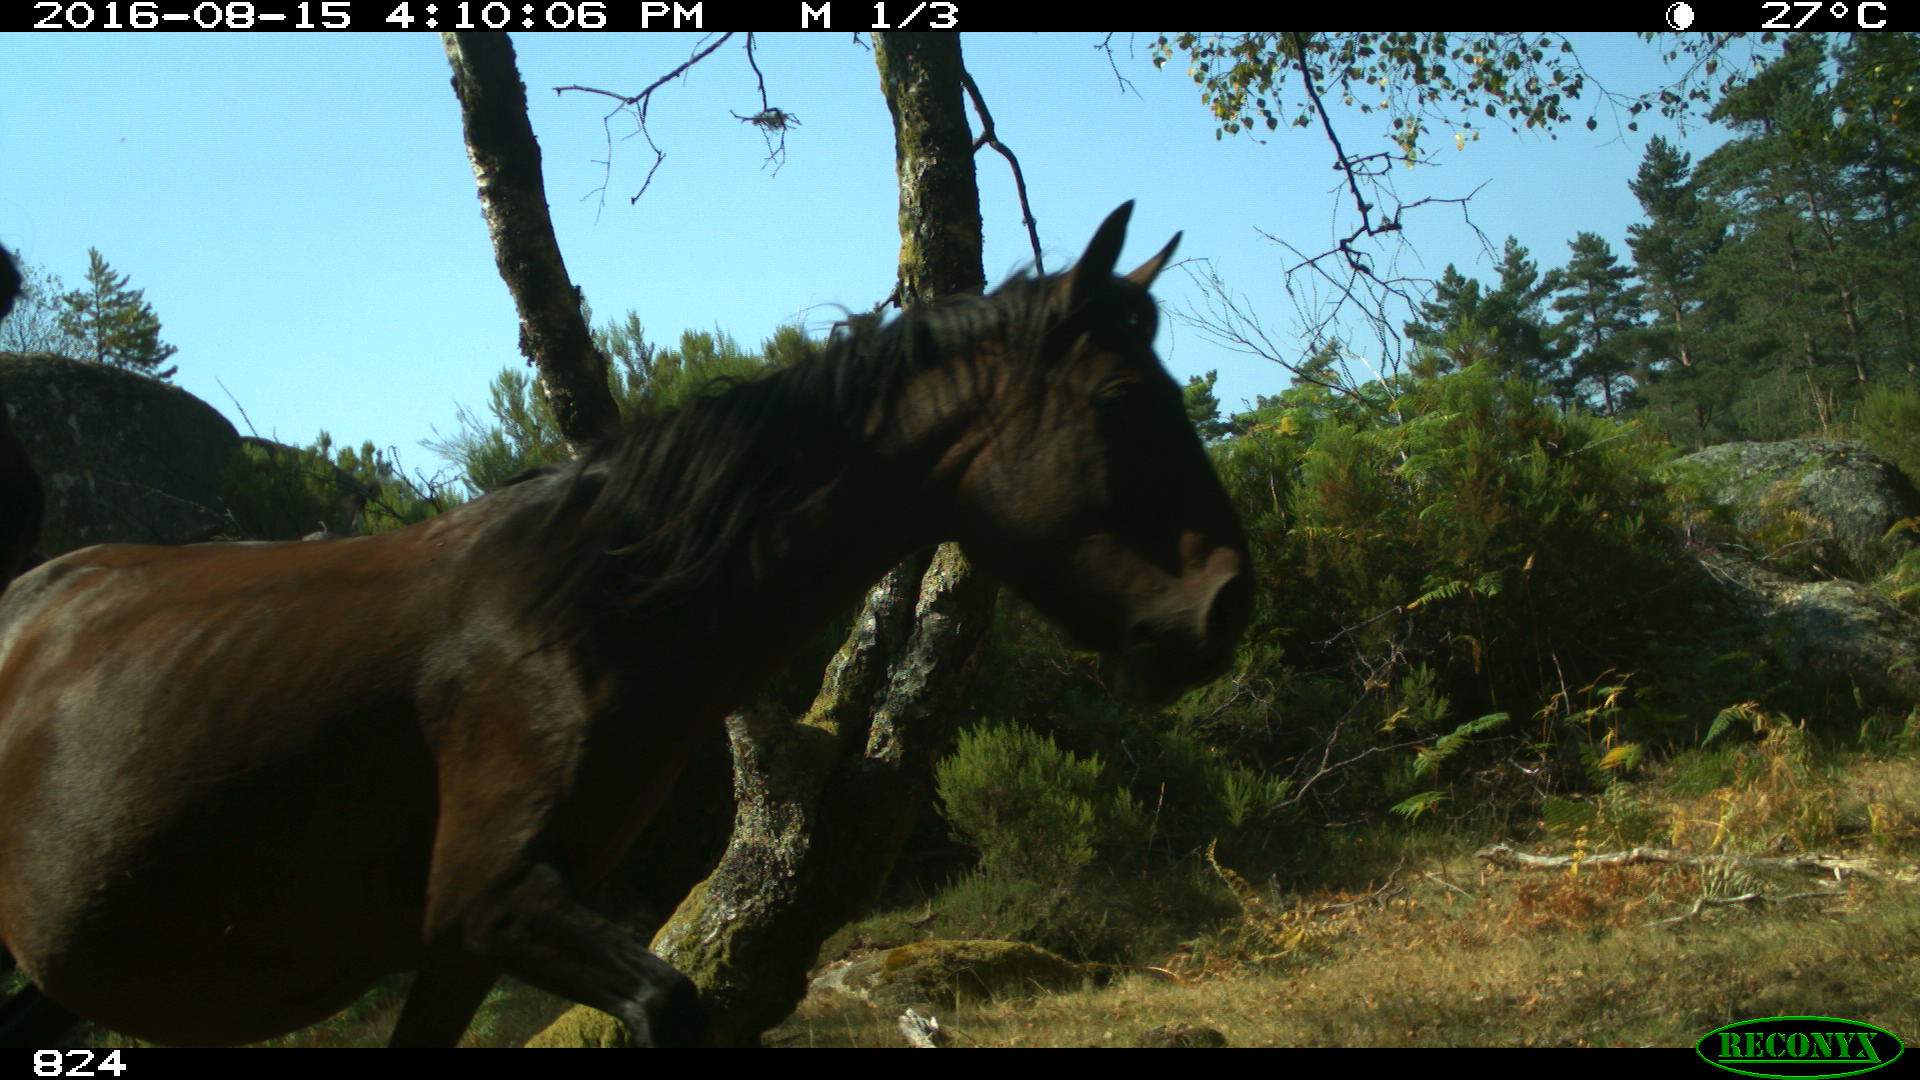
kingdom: Animalia
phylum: Chordata
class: Mammalia
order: Perissodactyla
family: Equidae
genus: Equus
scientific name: Equus caballus
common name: Horse
